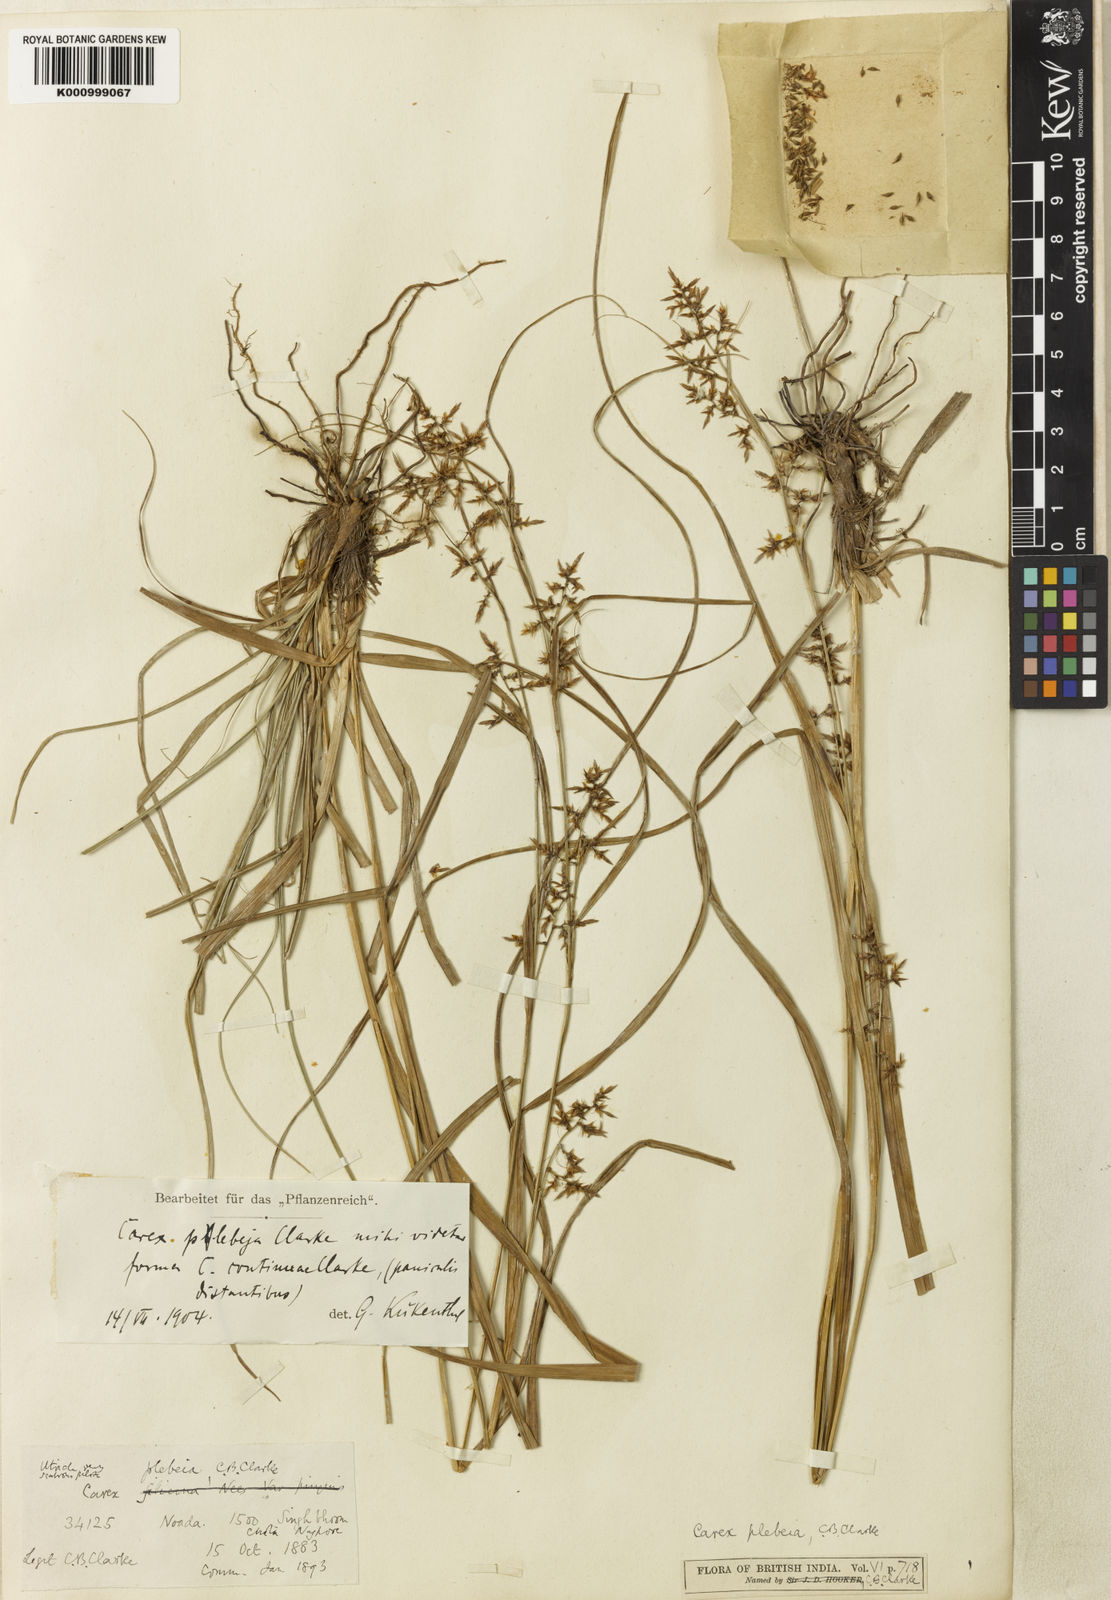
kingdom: Plantae
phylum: Tracheophyta
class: Liliopsida
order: Poales
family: Cyperaceae
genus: Carex
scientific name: Carex continua
